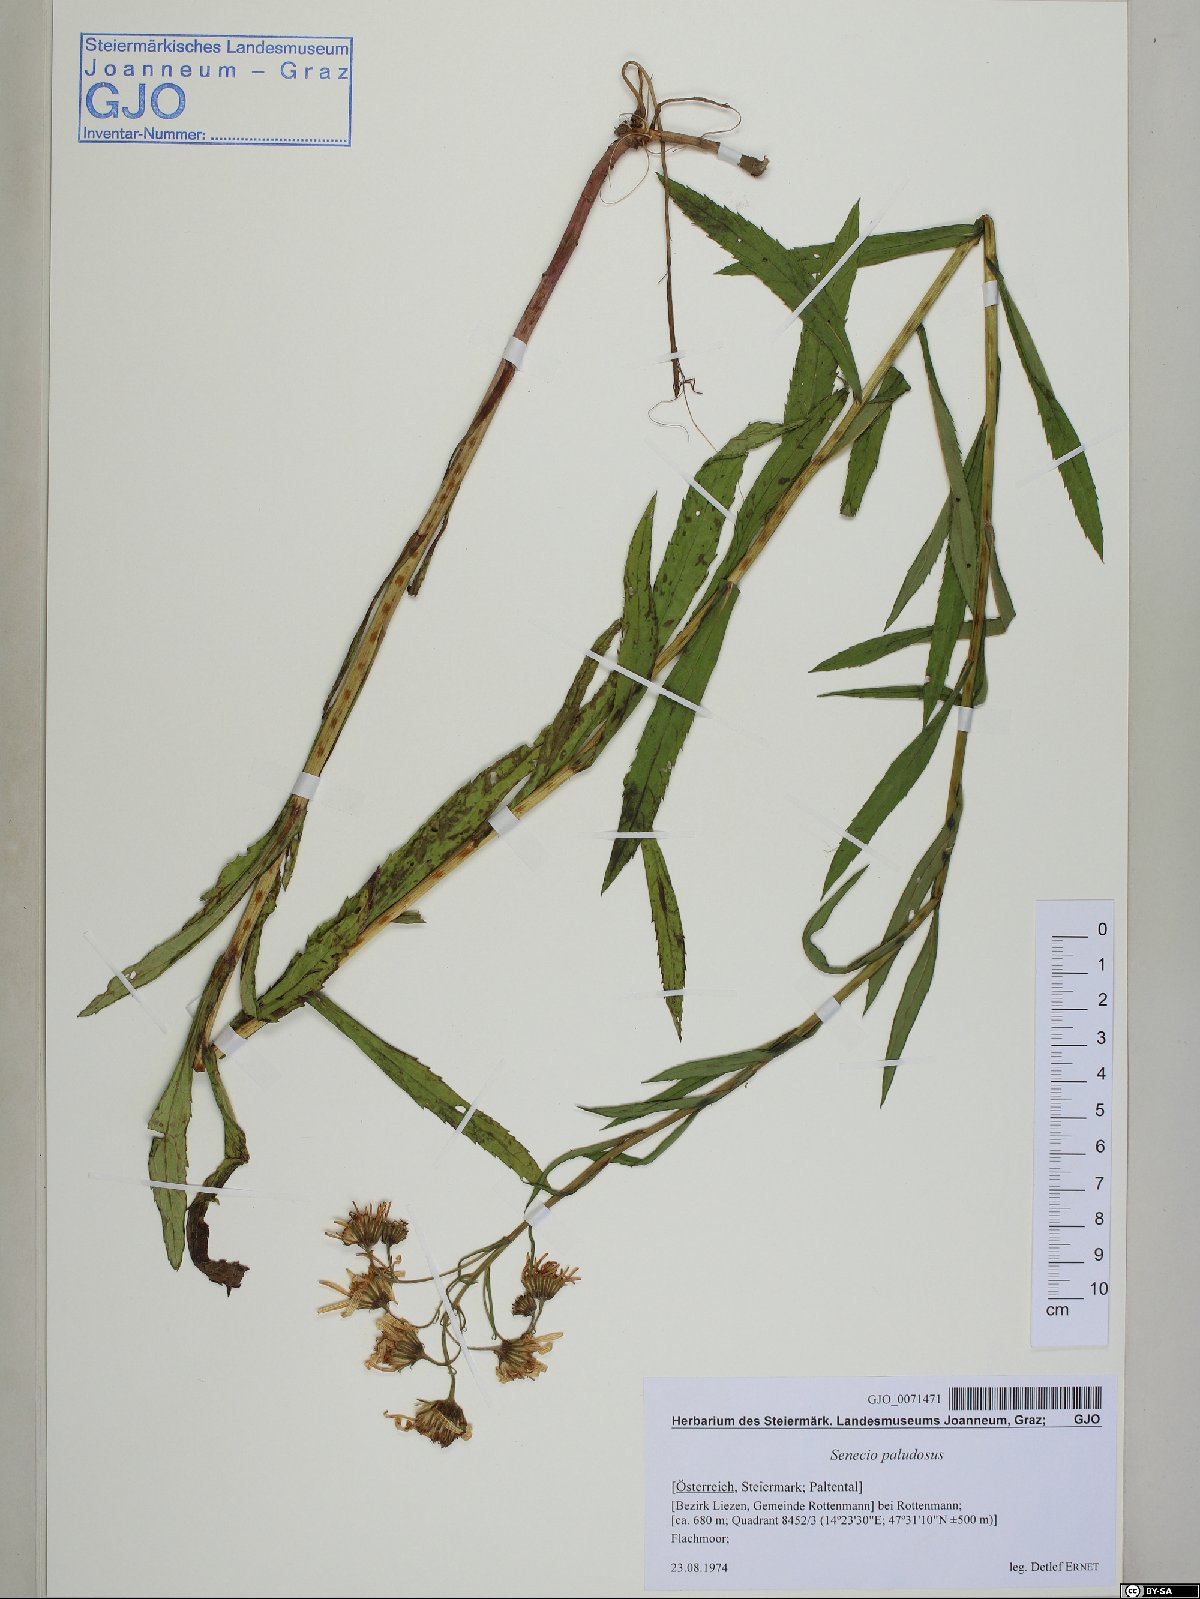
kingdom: Plantae
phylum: Tracheophyta
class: Magnoliopsida
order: Asterales
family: Asteraceae
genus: Jacobaea
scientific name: Jacobaea paludosa
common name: Fen ragwort
